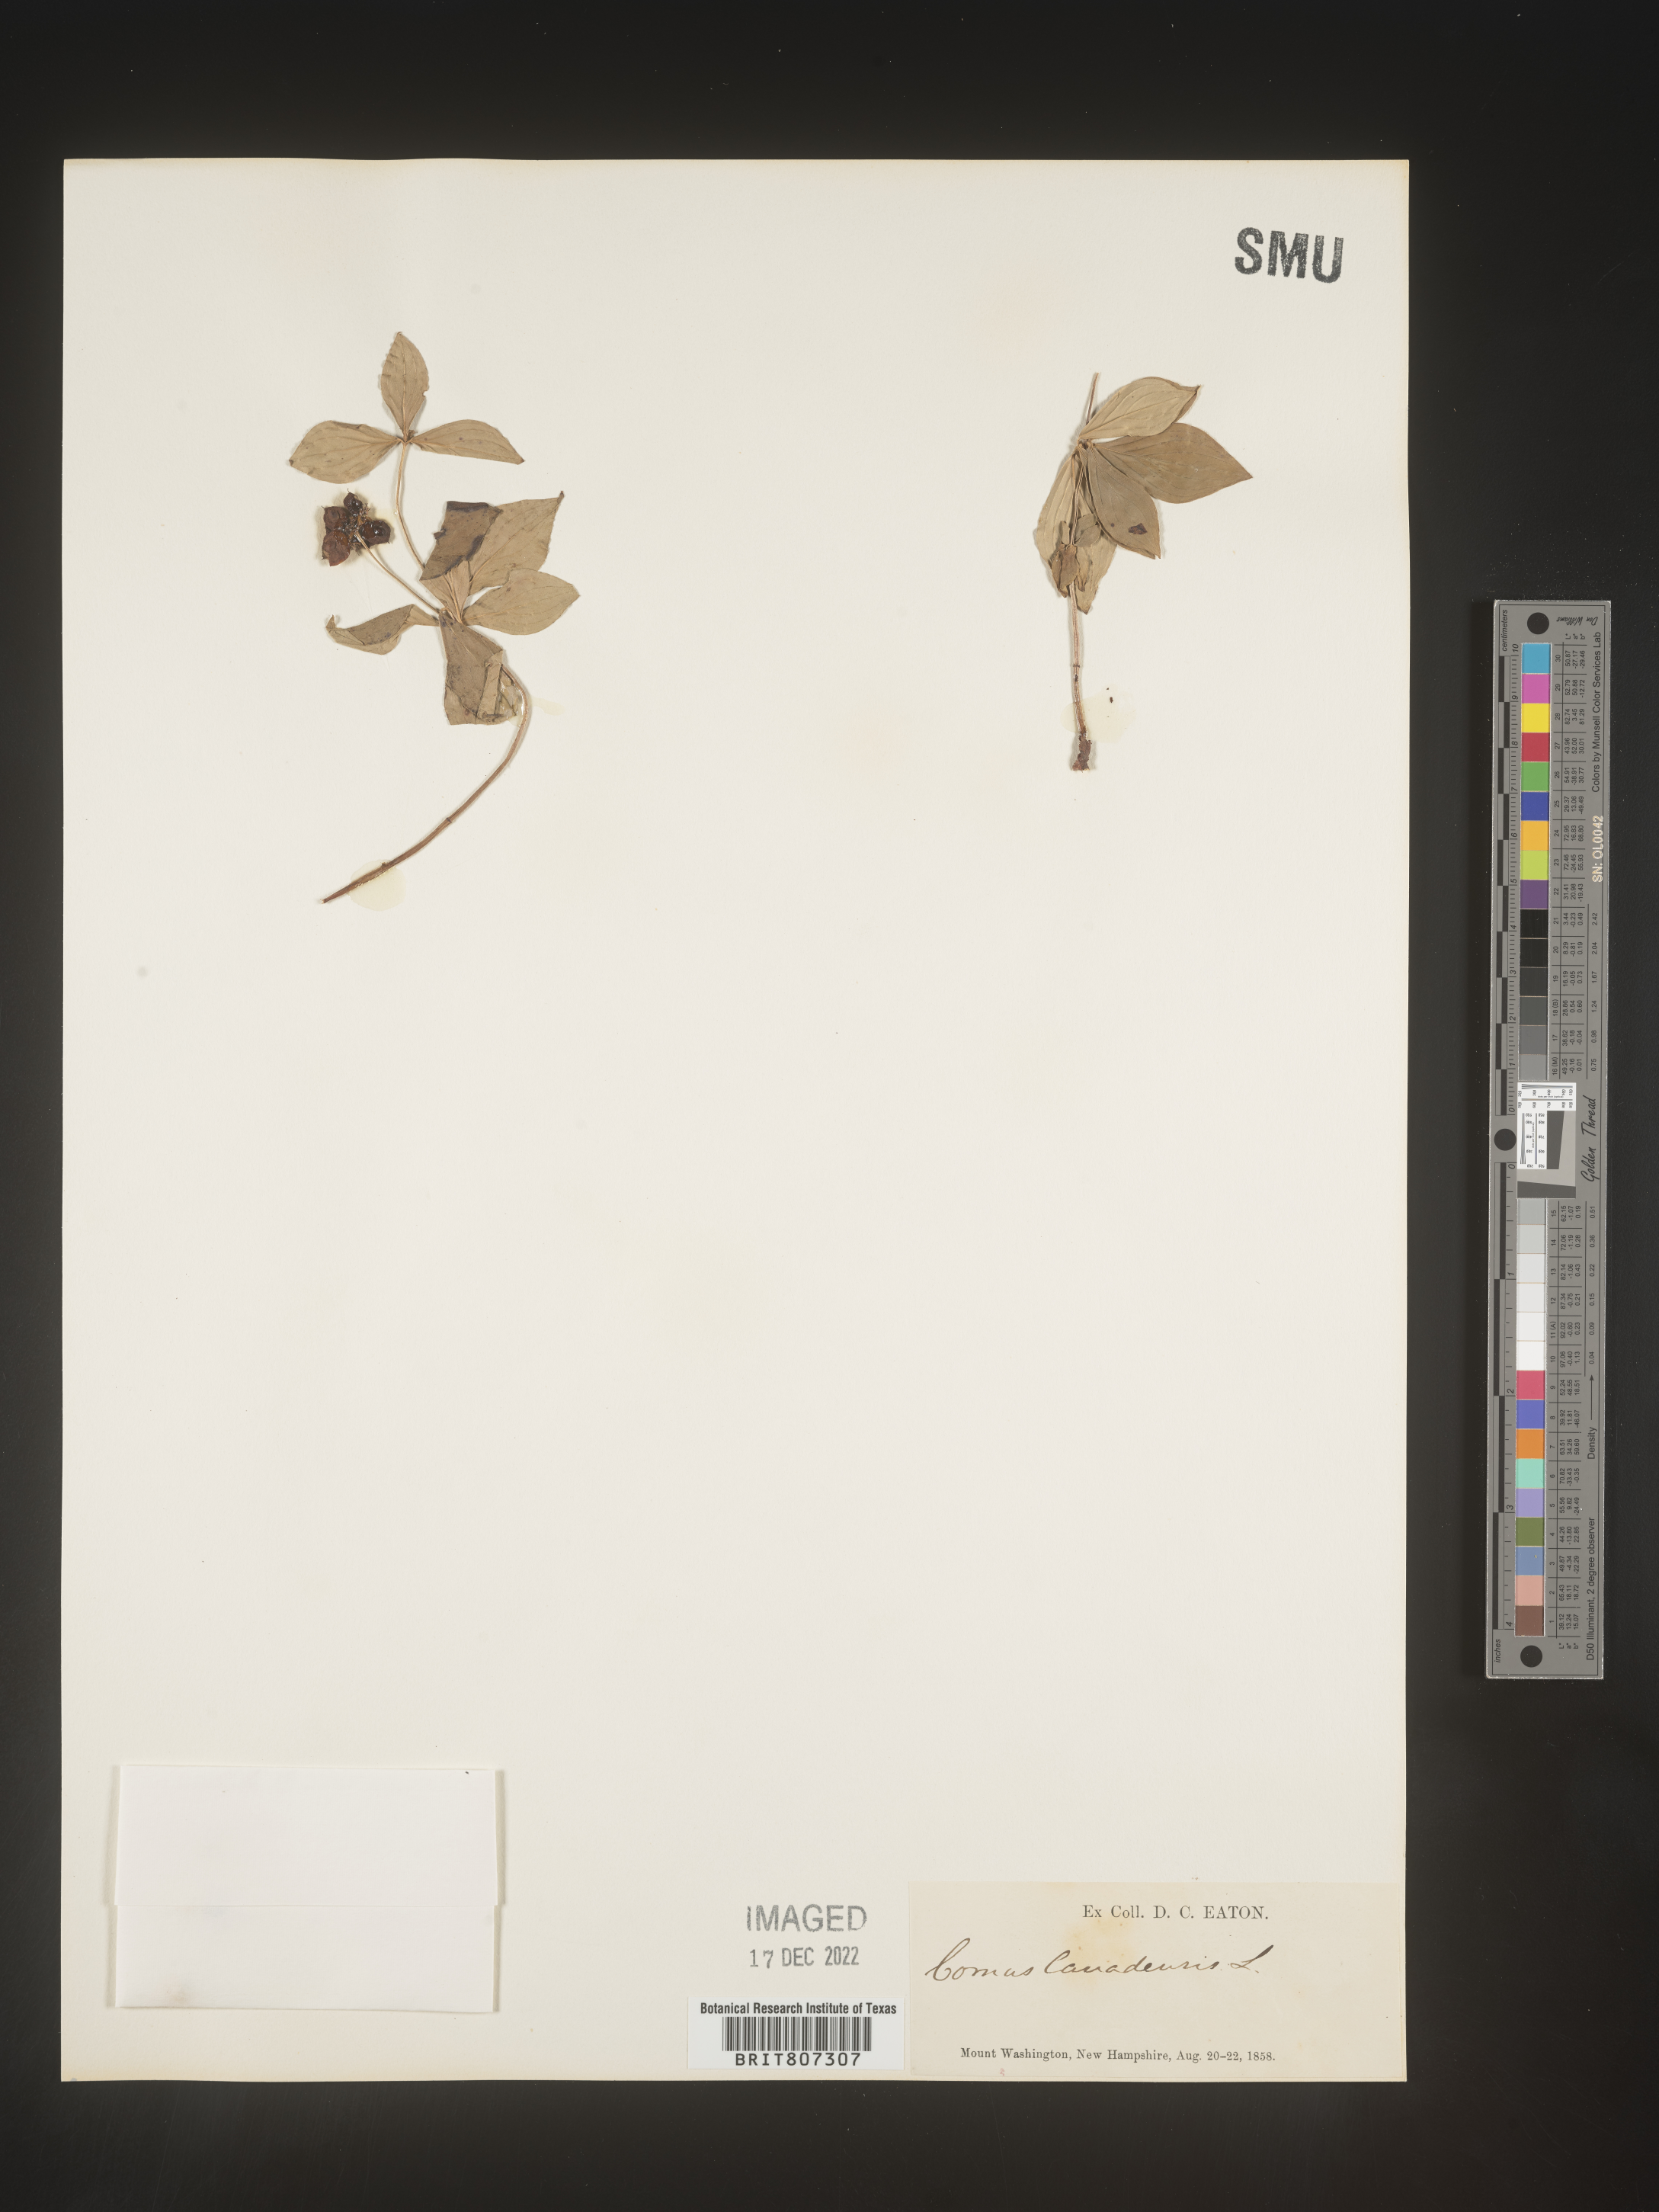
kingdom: Plantae
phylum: Tracheophyta
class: Magnoliopsida
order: Cornales
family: Cornaceae
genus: Cornus
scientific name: Cornus canadensis
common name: Creeping dogwood
